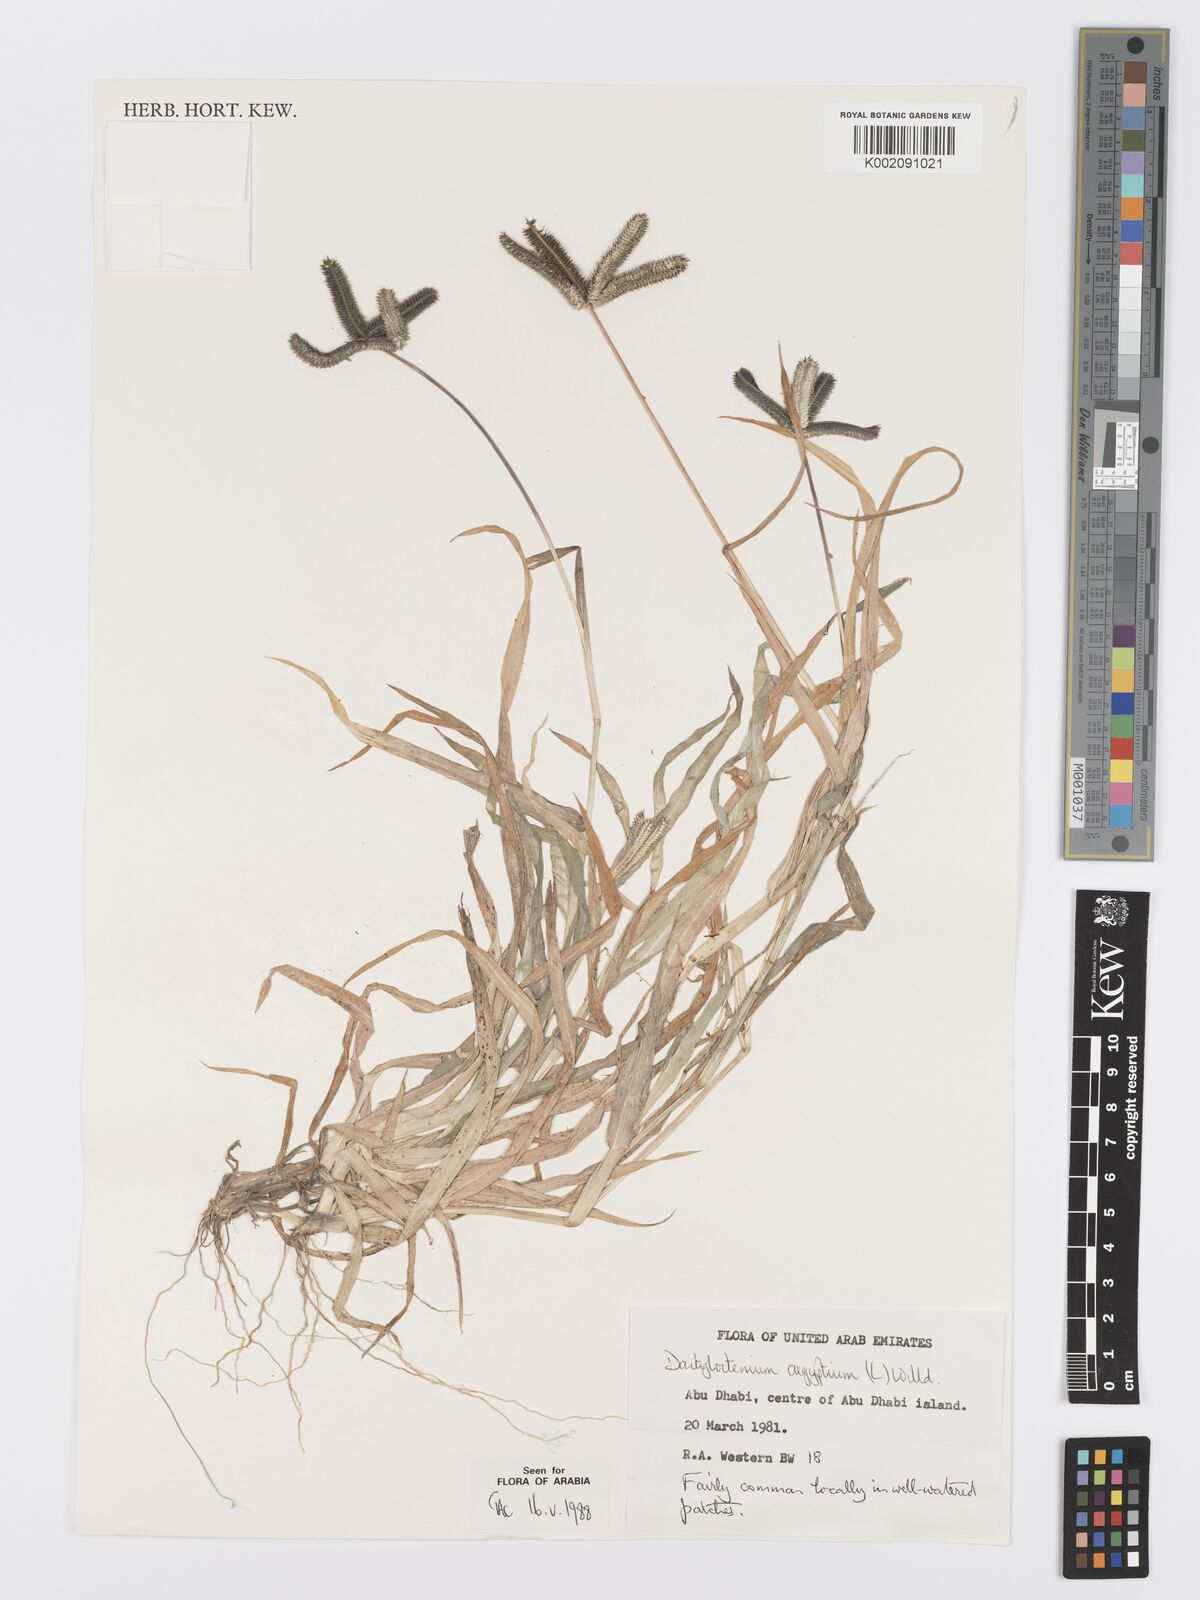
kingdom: Plantae
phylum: Tracheophyta
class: Liliopsida
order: Poales
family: Poaceae
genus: Dactyloctenium
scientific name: Dactyloctenium aegyptium
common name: Egyptian grass
